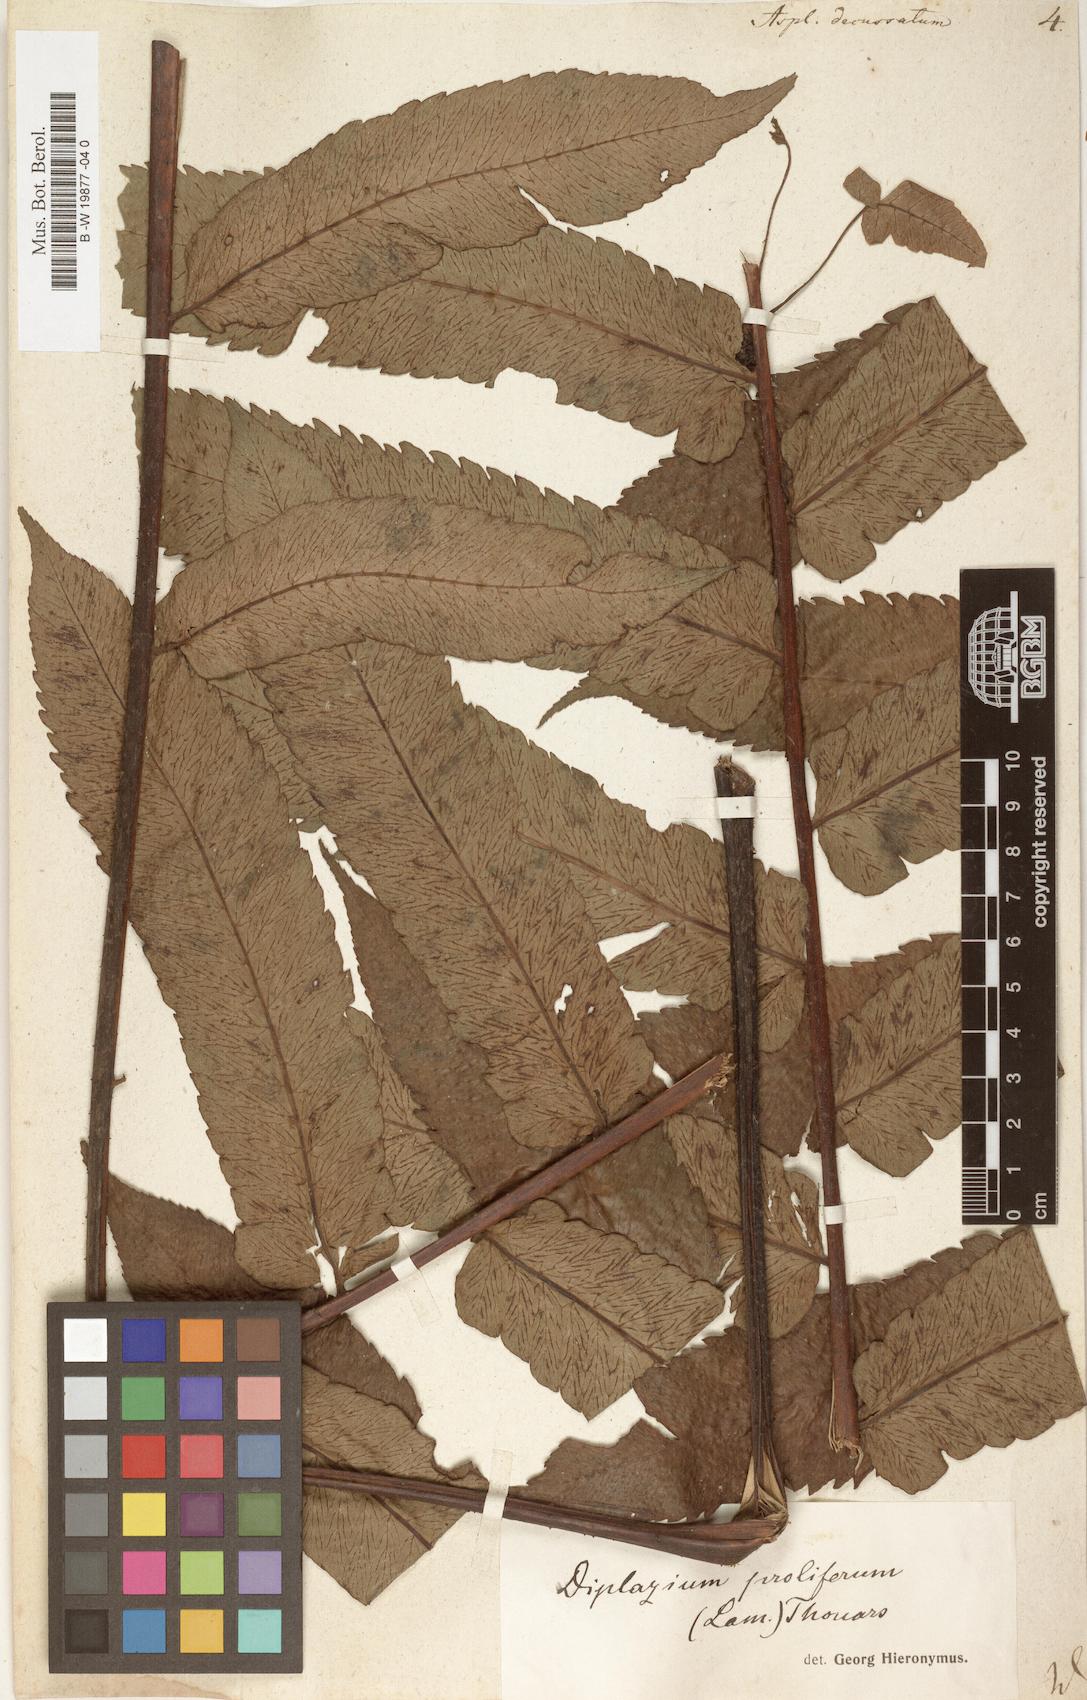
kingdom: Plantae
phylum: Tracheophyta
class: Polypodiopsida
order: Polypodiales
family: Athyriaceae
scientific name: Athyriaceae
